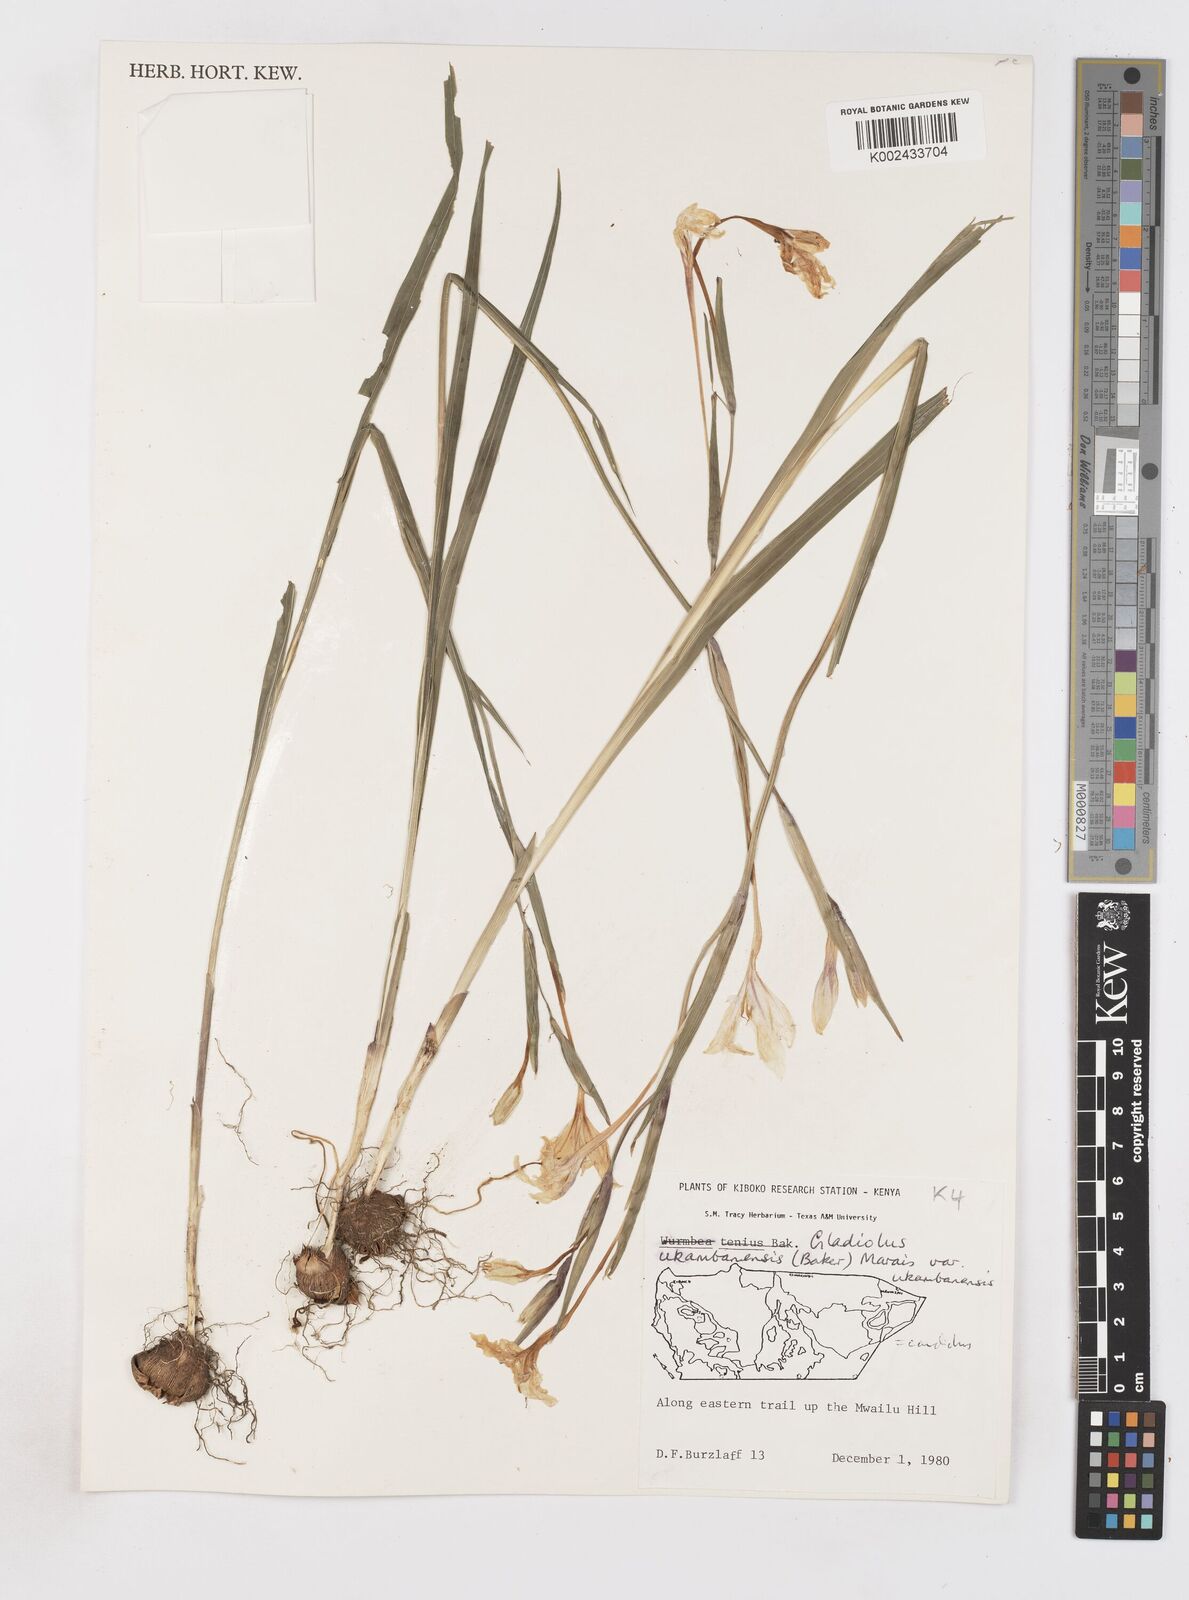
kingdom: Plantae
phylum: Tracheophyta
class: Liliopsida
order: Asparagales
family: Iridaceae
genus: Gladiolus
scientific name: Gladiolus candidus
